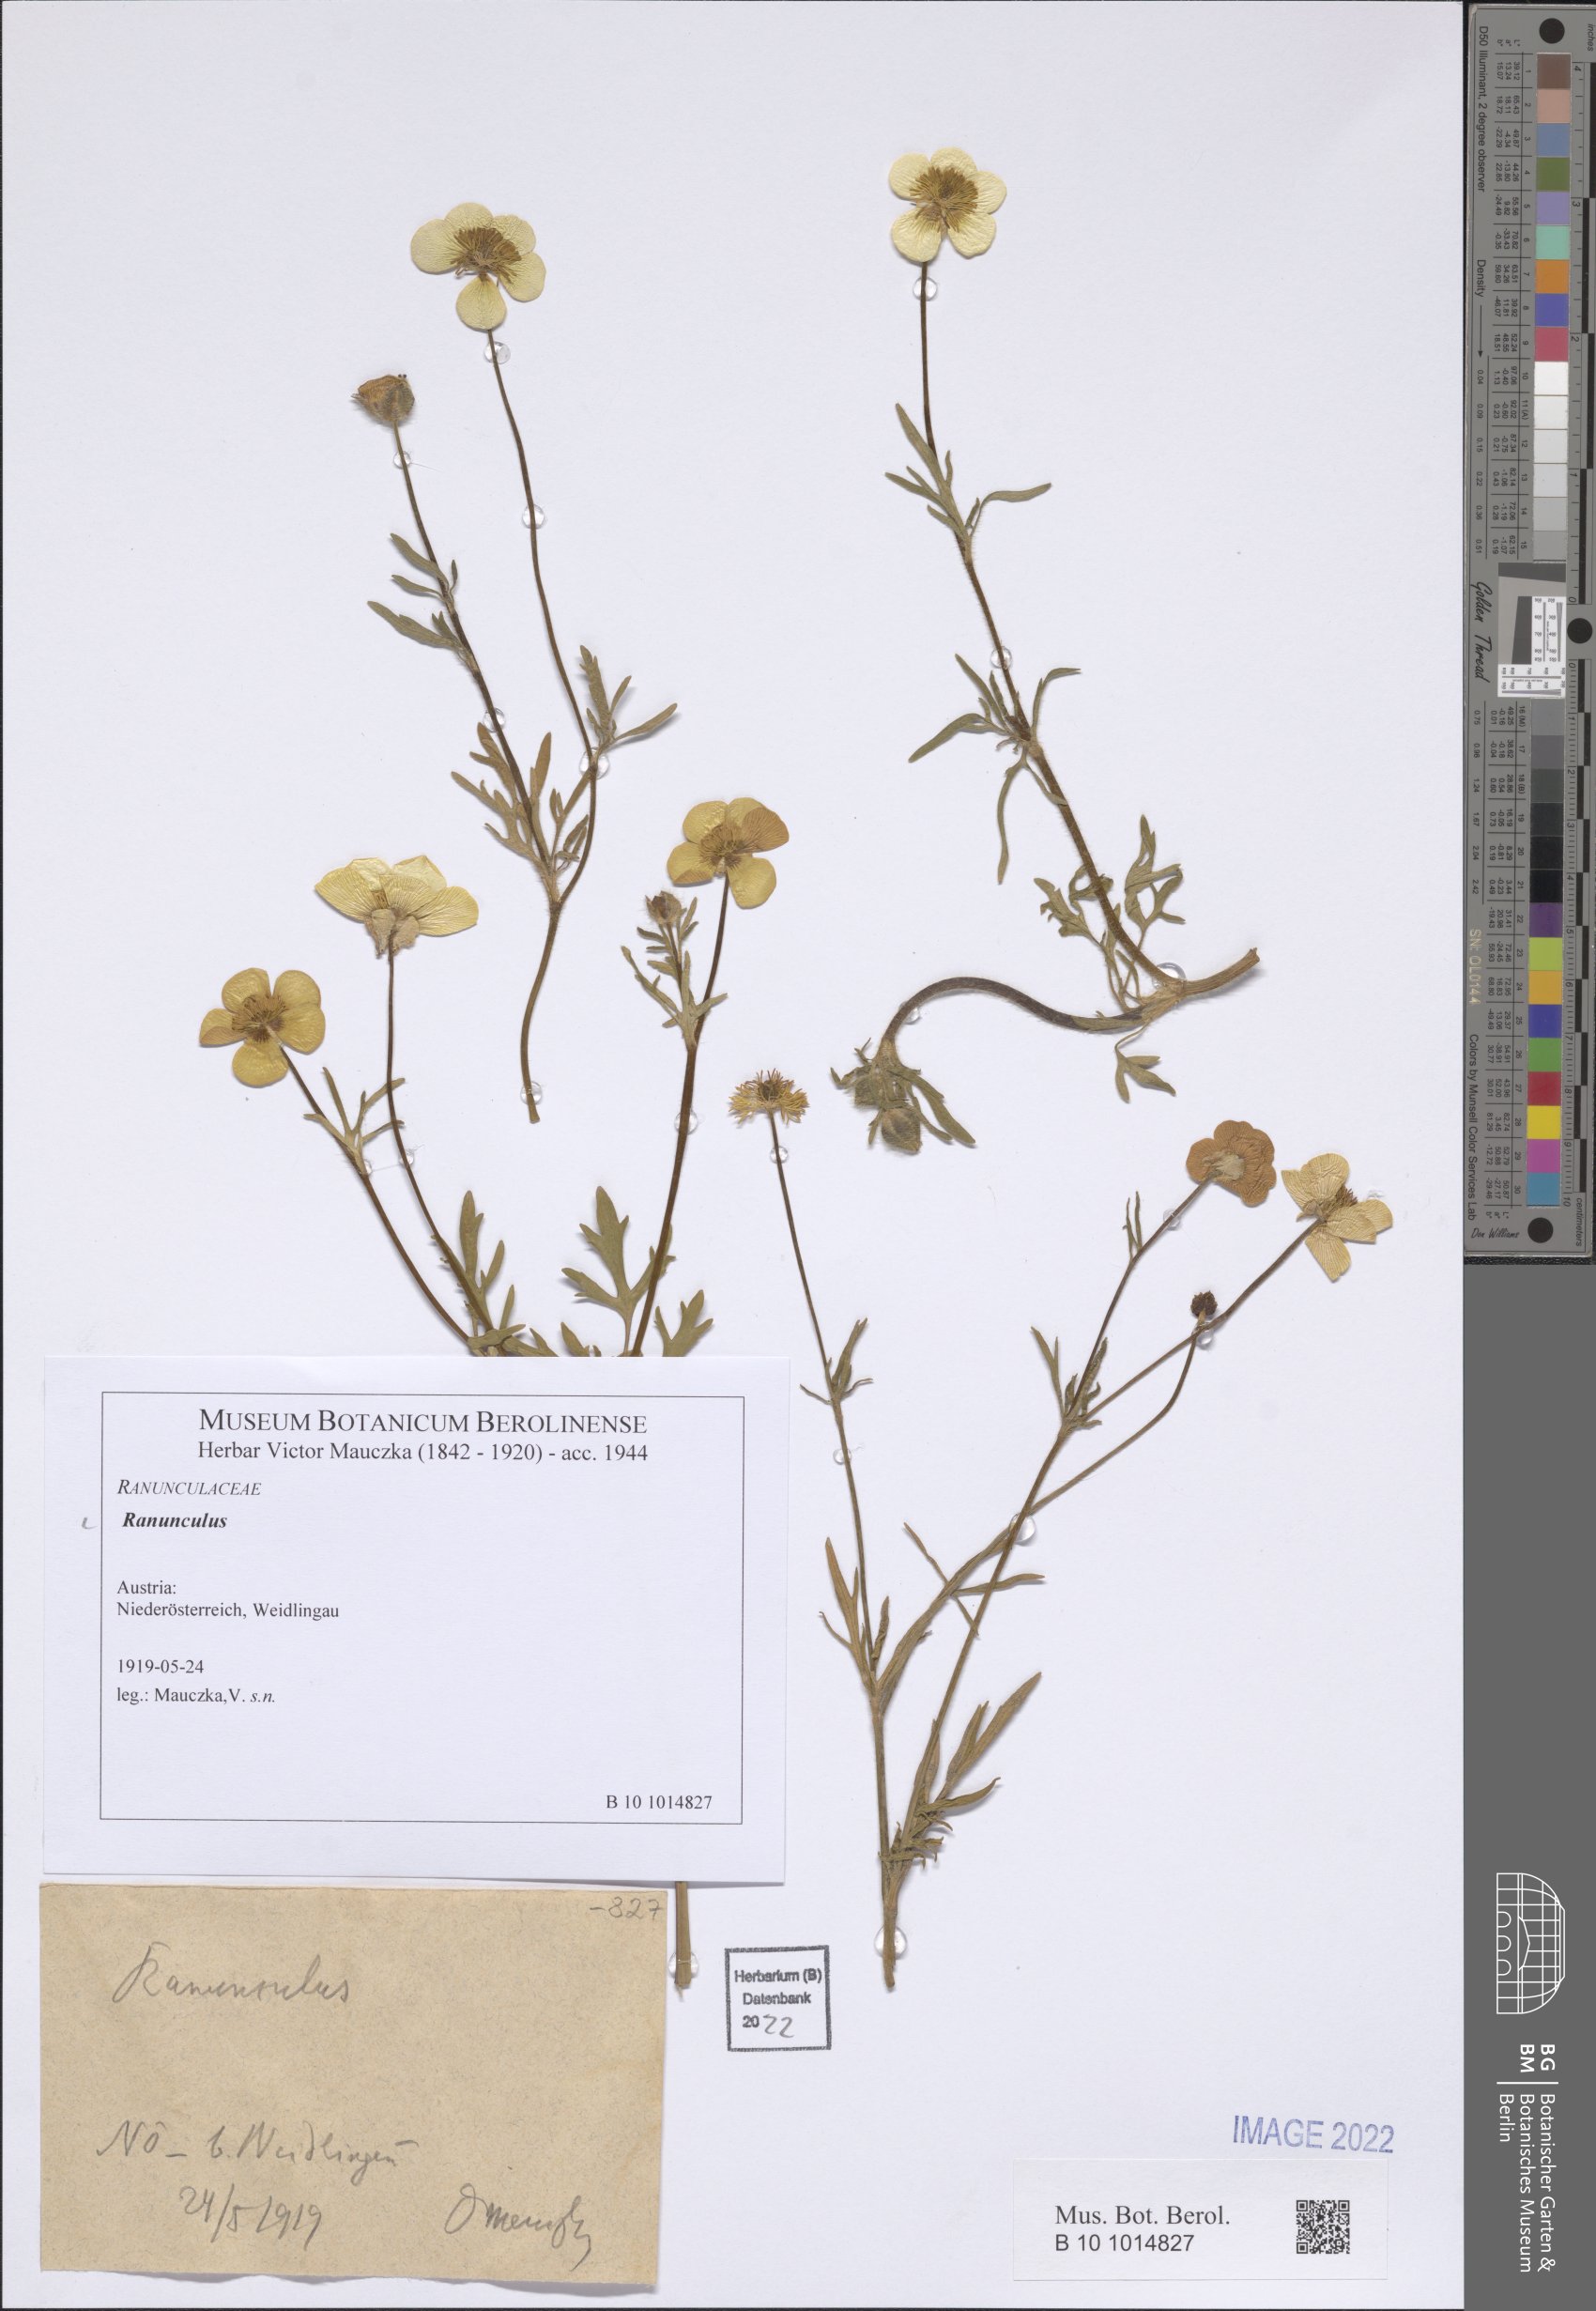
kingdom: Plantae
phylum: Tracheophyta
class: Magnoliopsida
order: Ranunculales
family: Ranunculaceae
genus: Ranunculus
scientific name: Ranunculus
